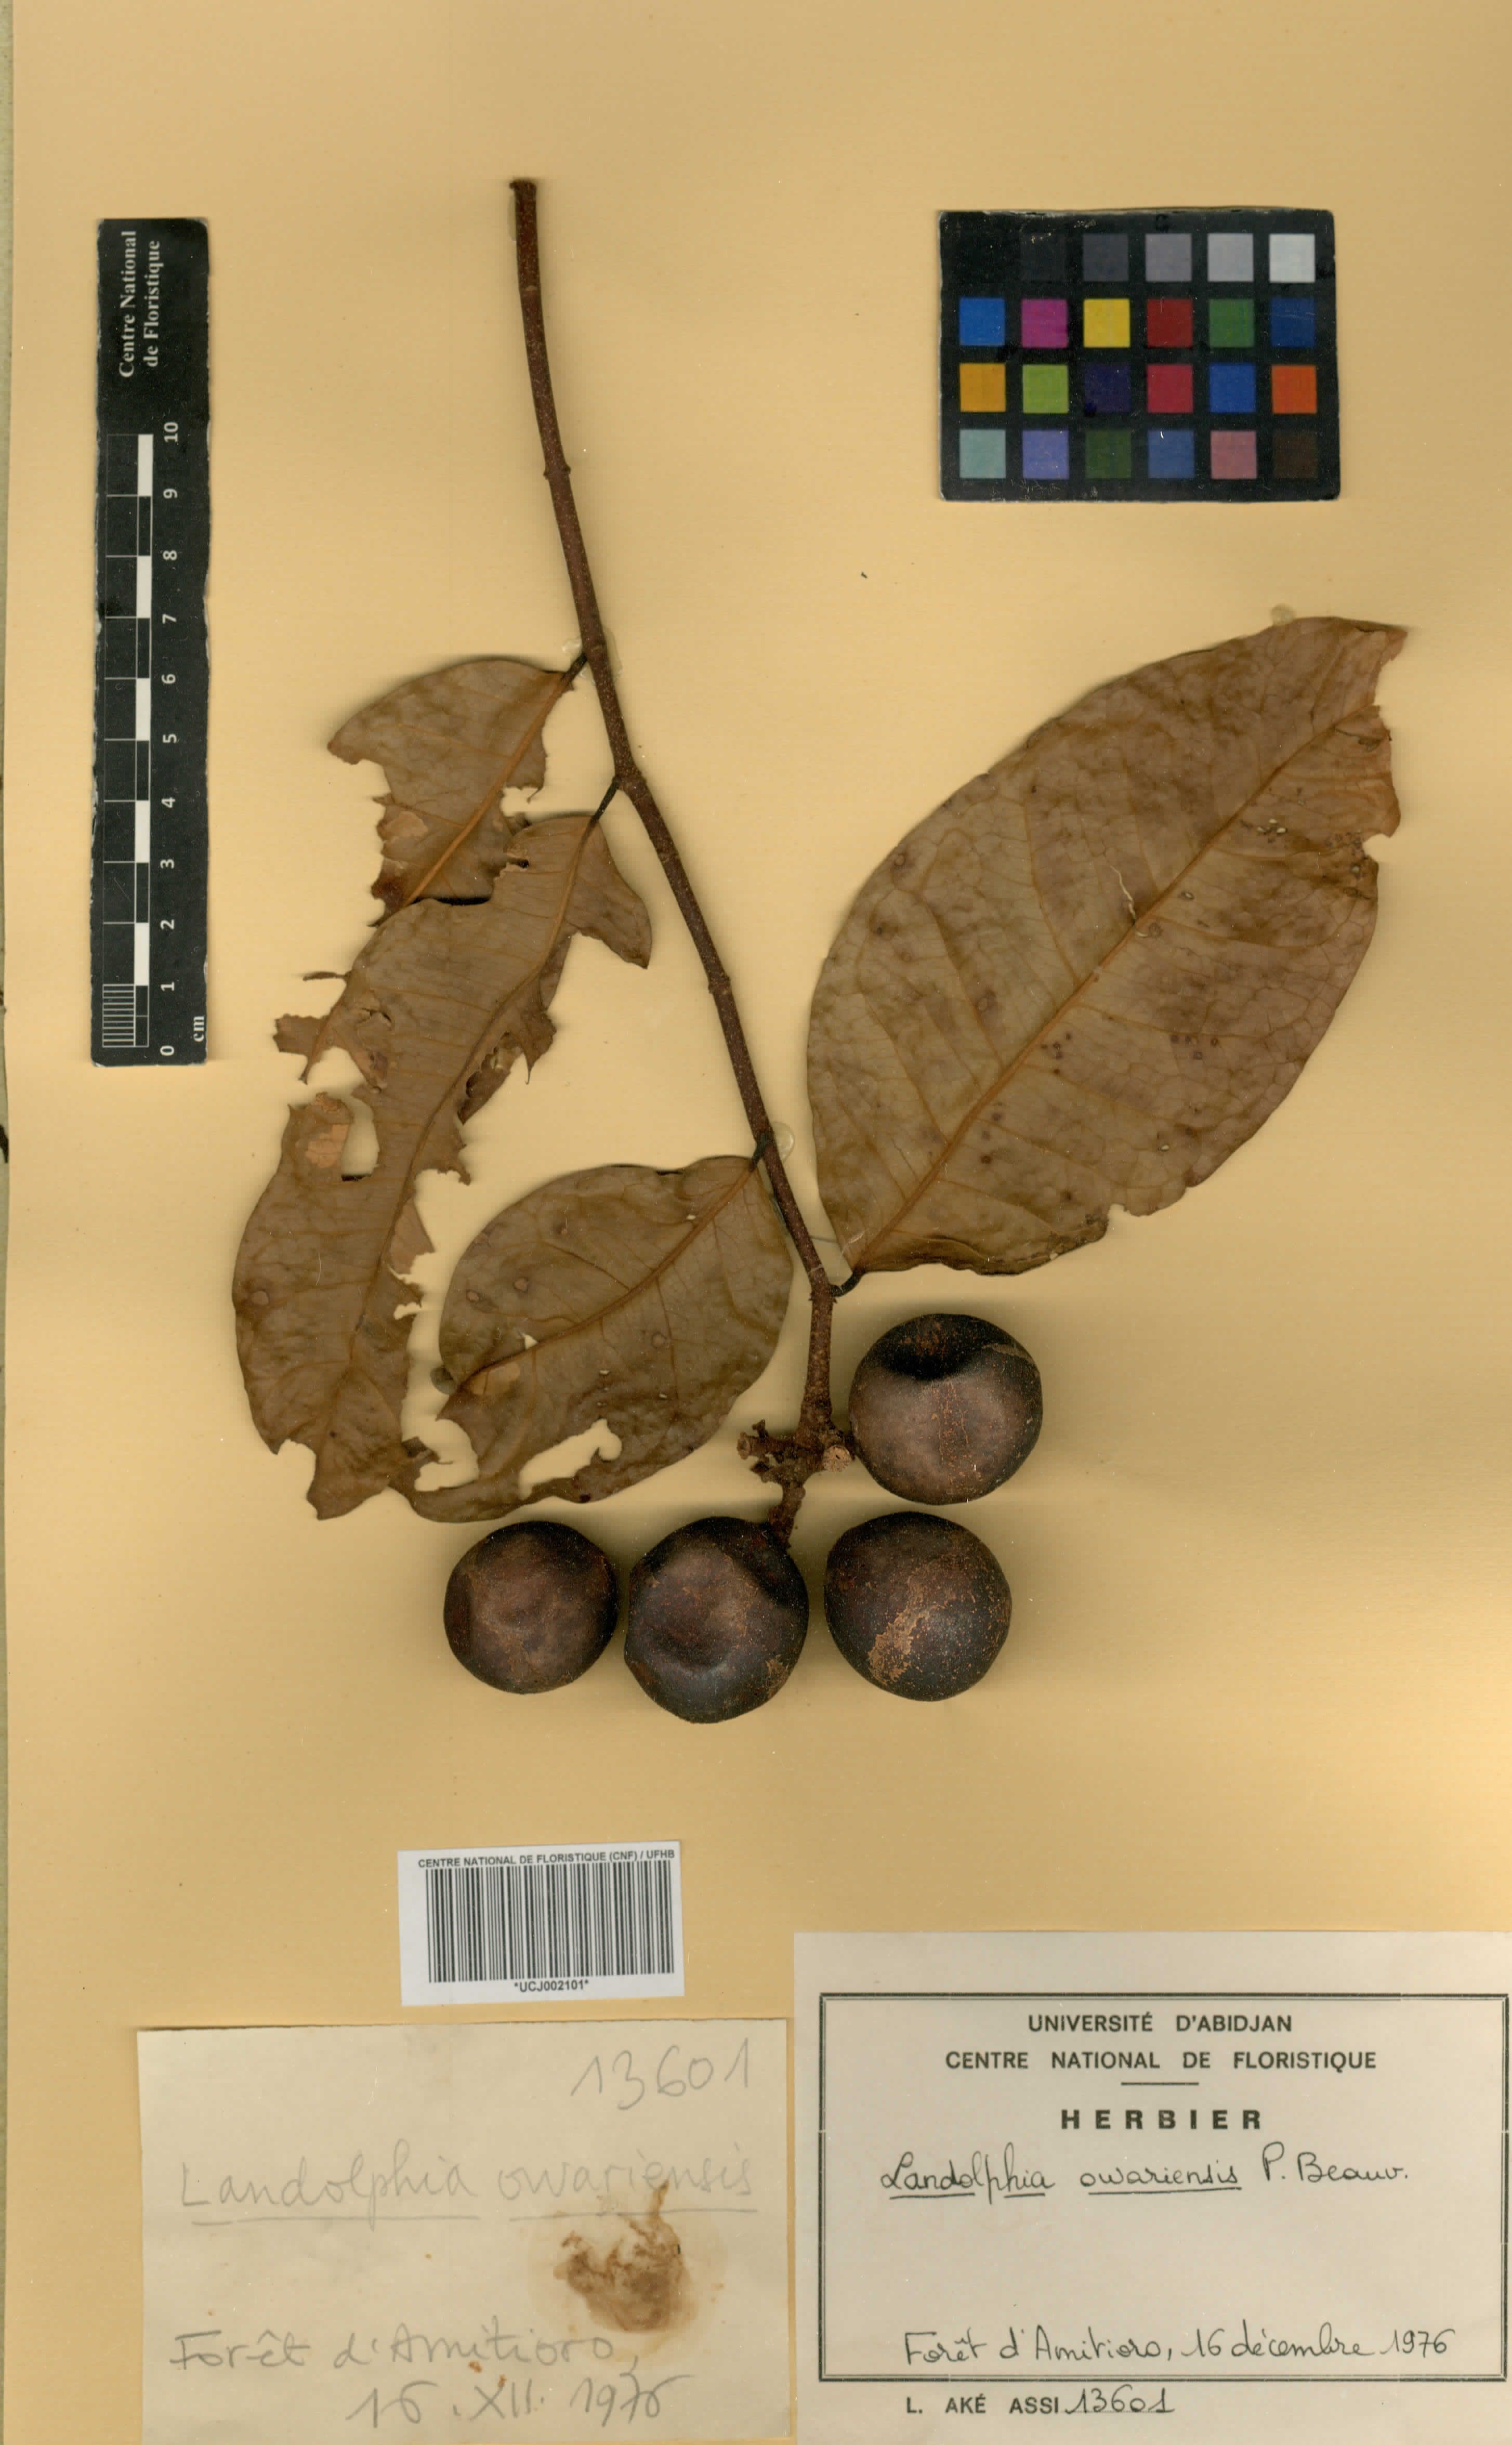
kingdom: Plantae
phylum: Tracheophyta
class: Magnoliopsida
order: Gentianales
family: Apocynaceae
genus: Landolphia
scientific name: Landolphia owariensis
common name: White-ball-rubber
